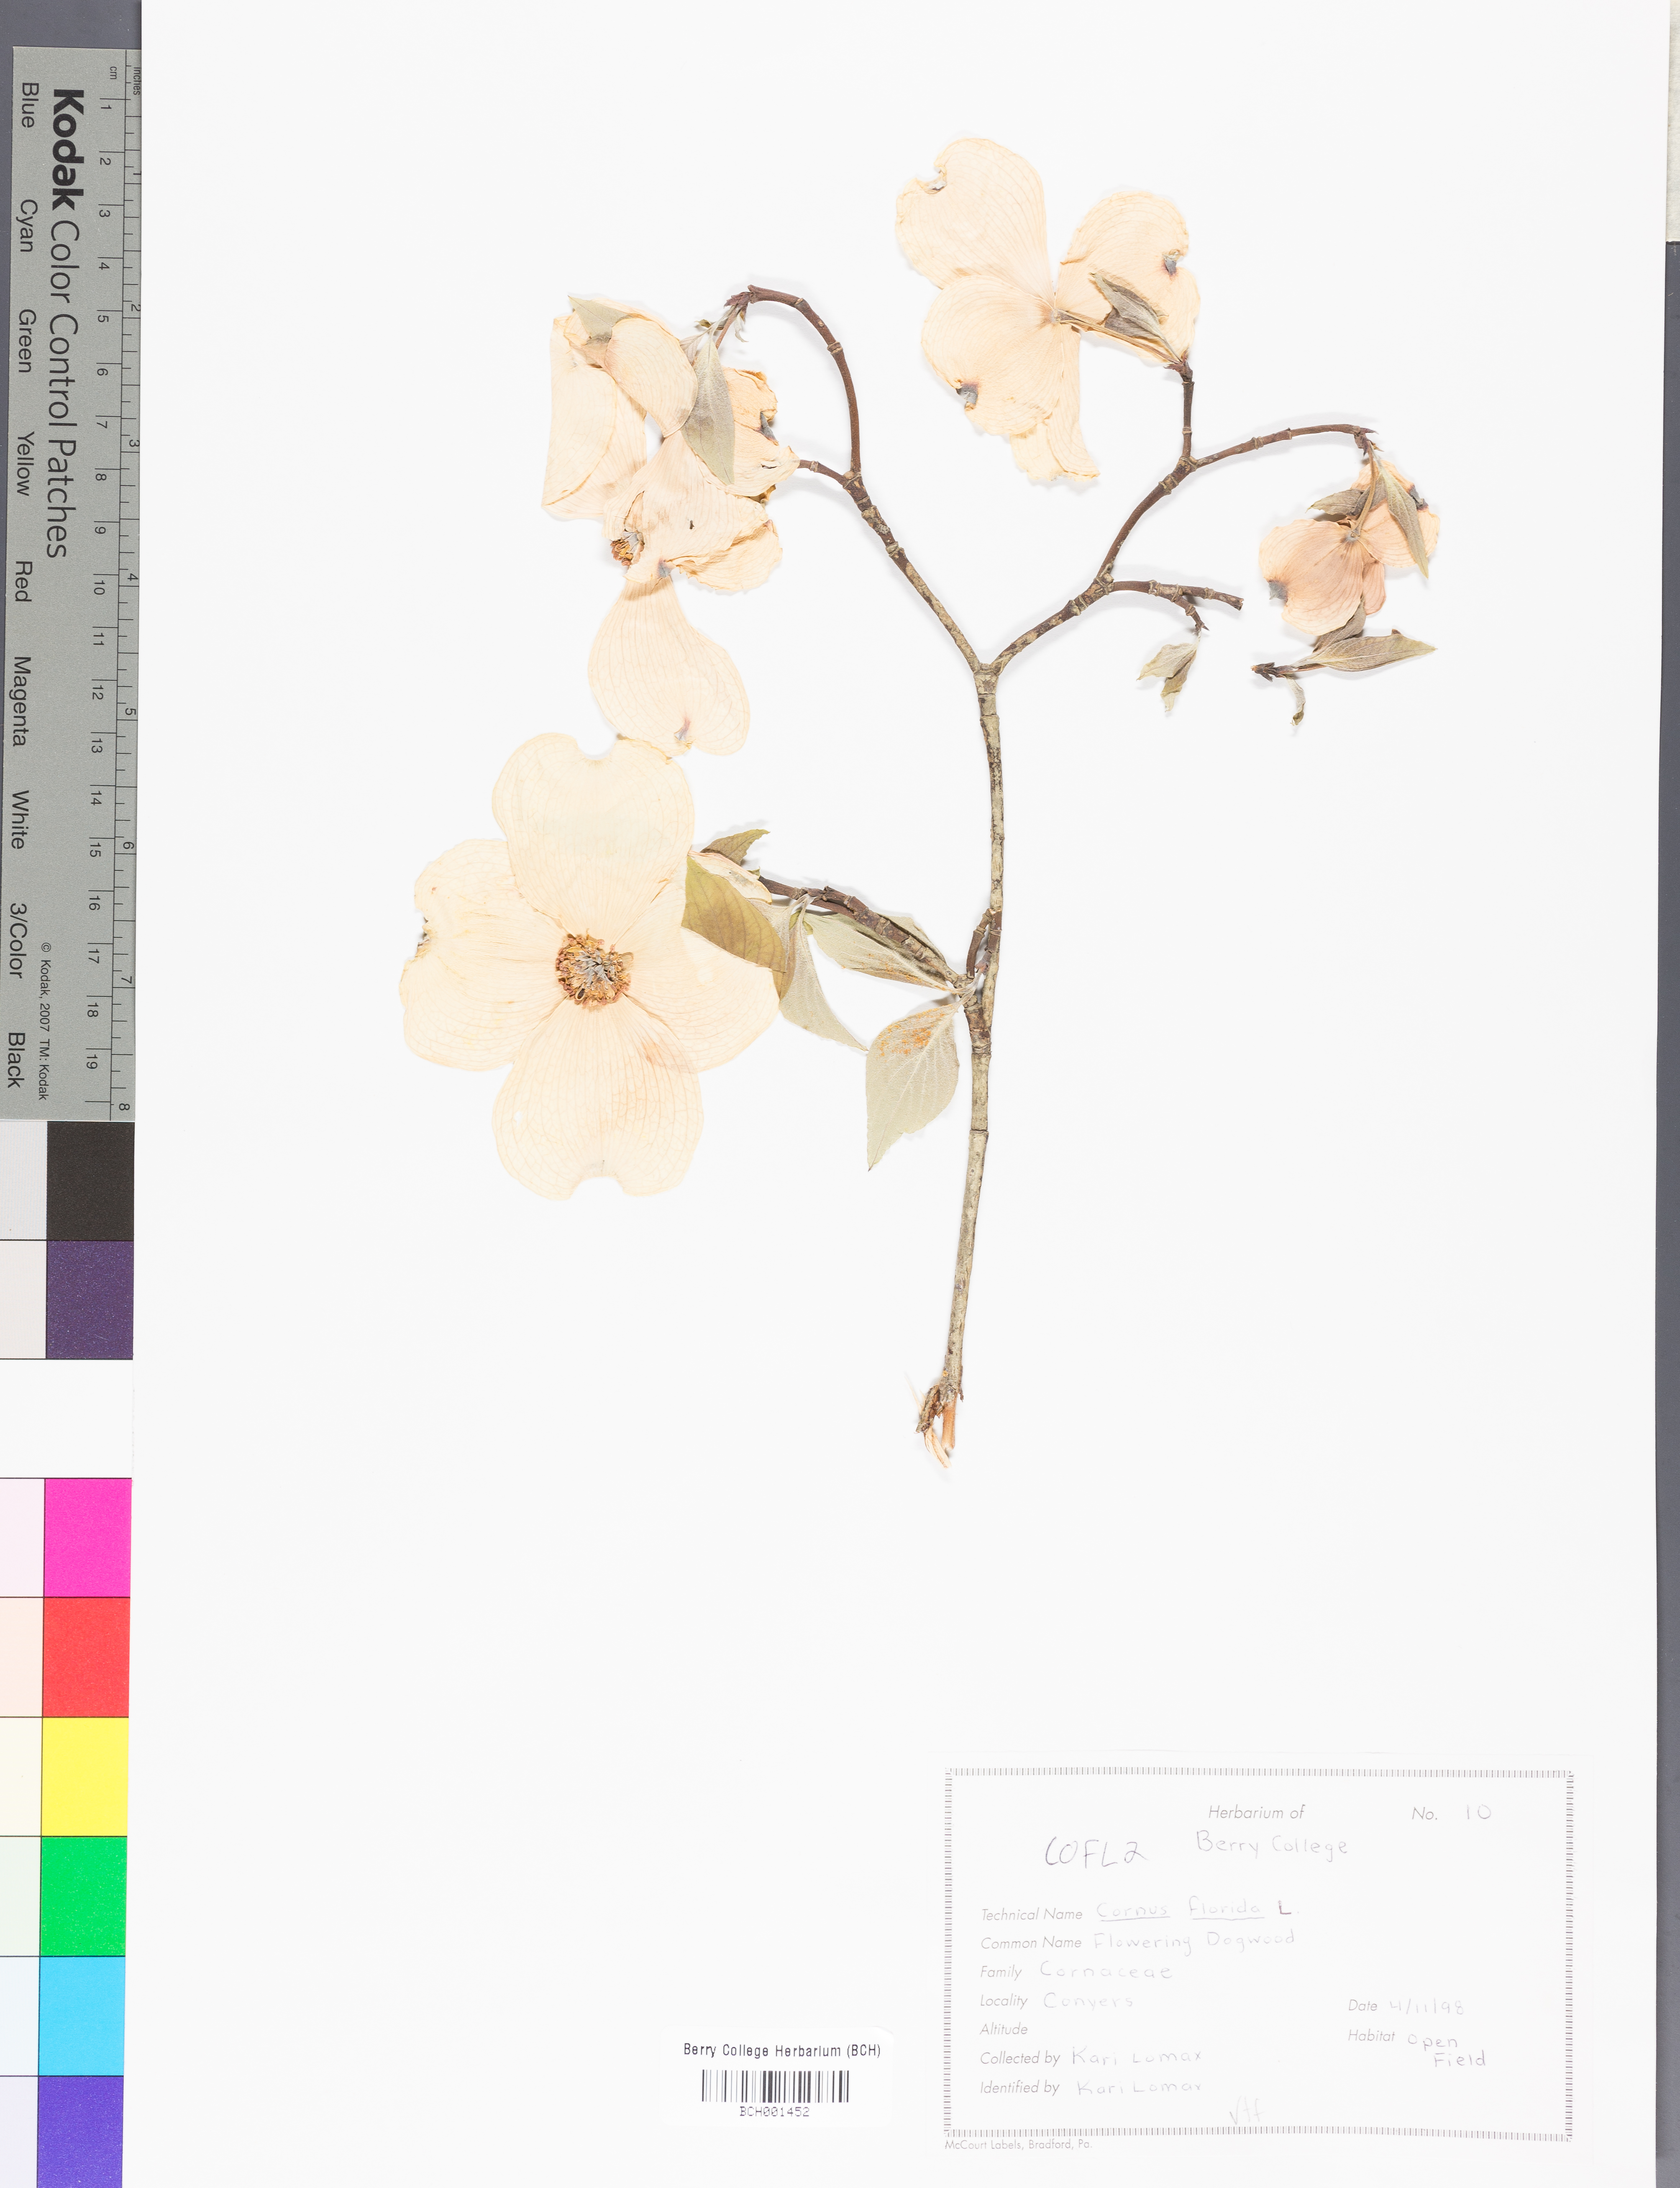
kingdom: Plantae
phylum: Tracheophyta
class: Magnoliopsida
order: Cornales
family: Cornaceae
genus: Cornus
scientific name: Cornus florida
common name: Flowering dogwood
